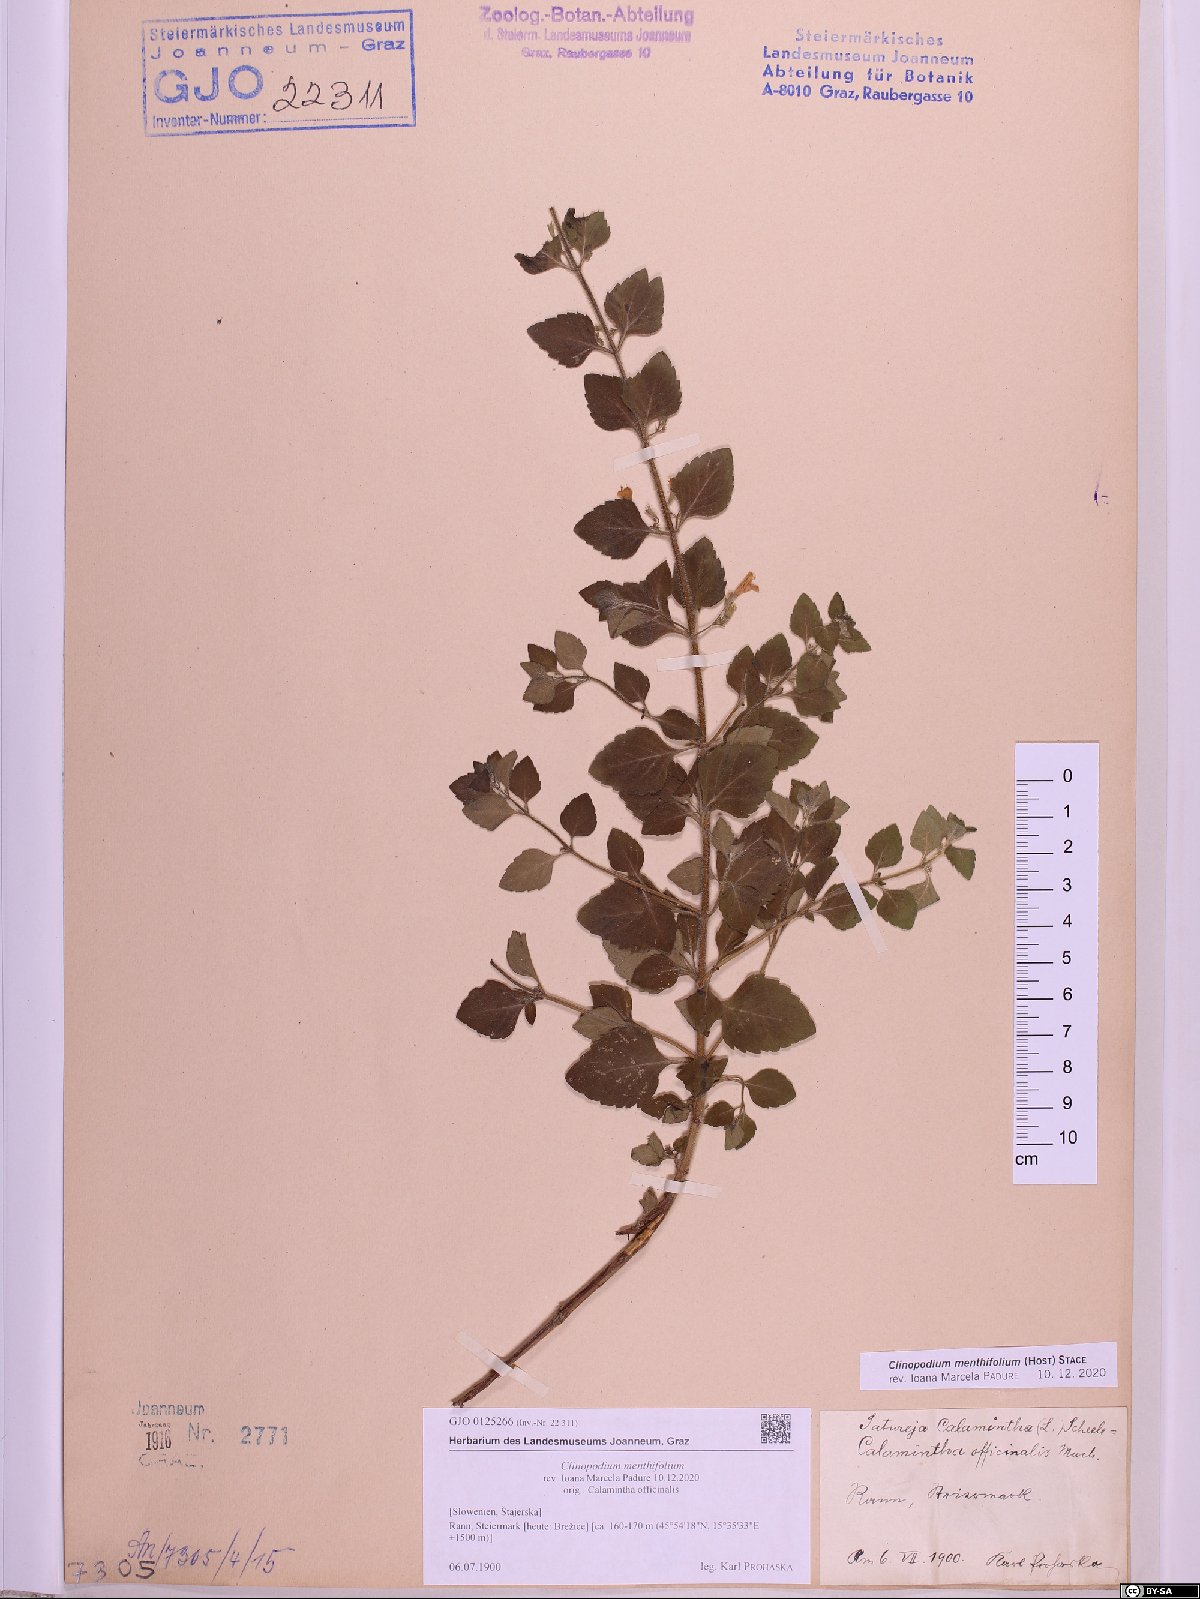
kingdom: Plantae
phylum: Tracheophyta
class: Magnoliopsida
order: Lamiales
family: Lamiaceae
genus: Clinopodium
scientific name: Clinopodium menthifolium
